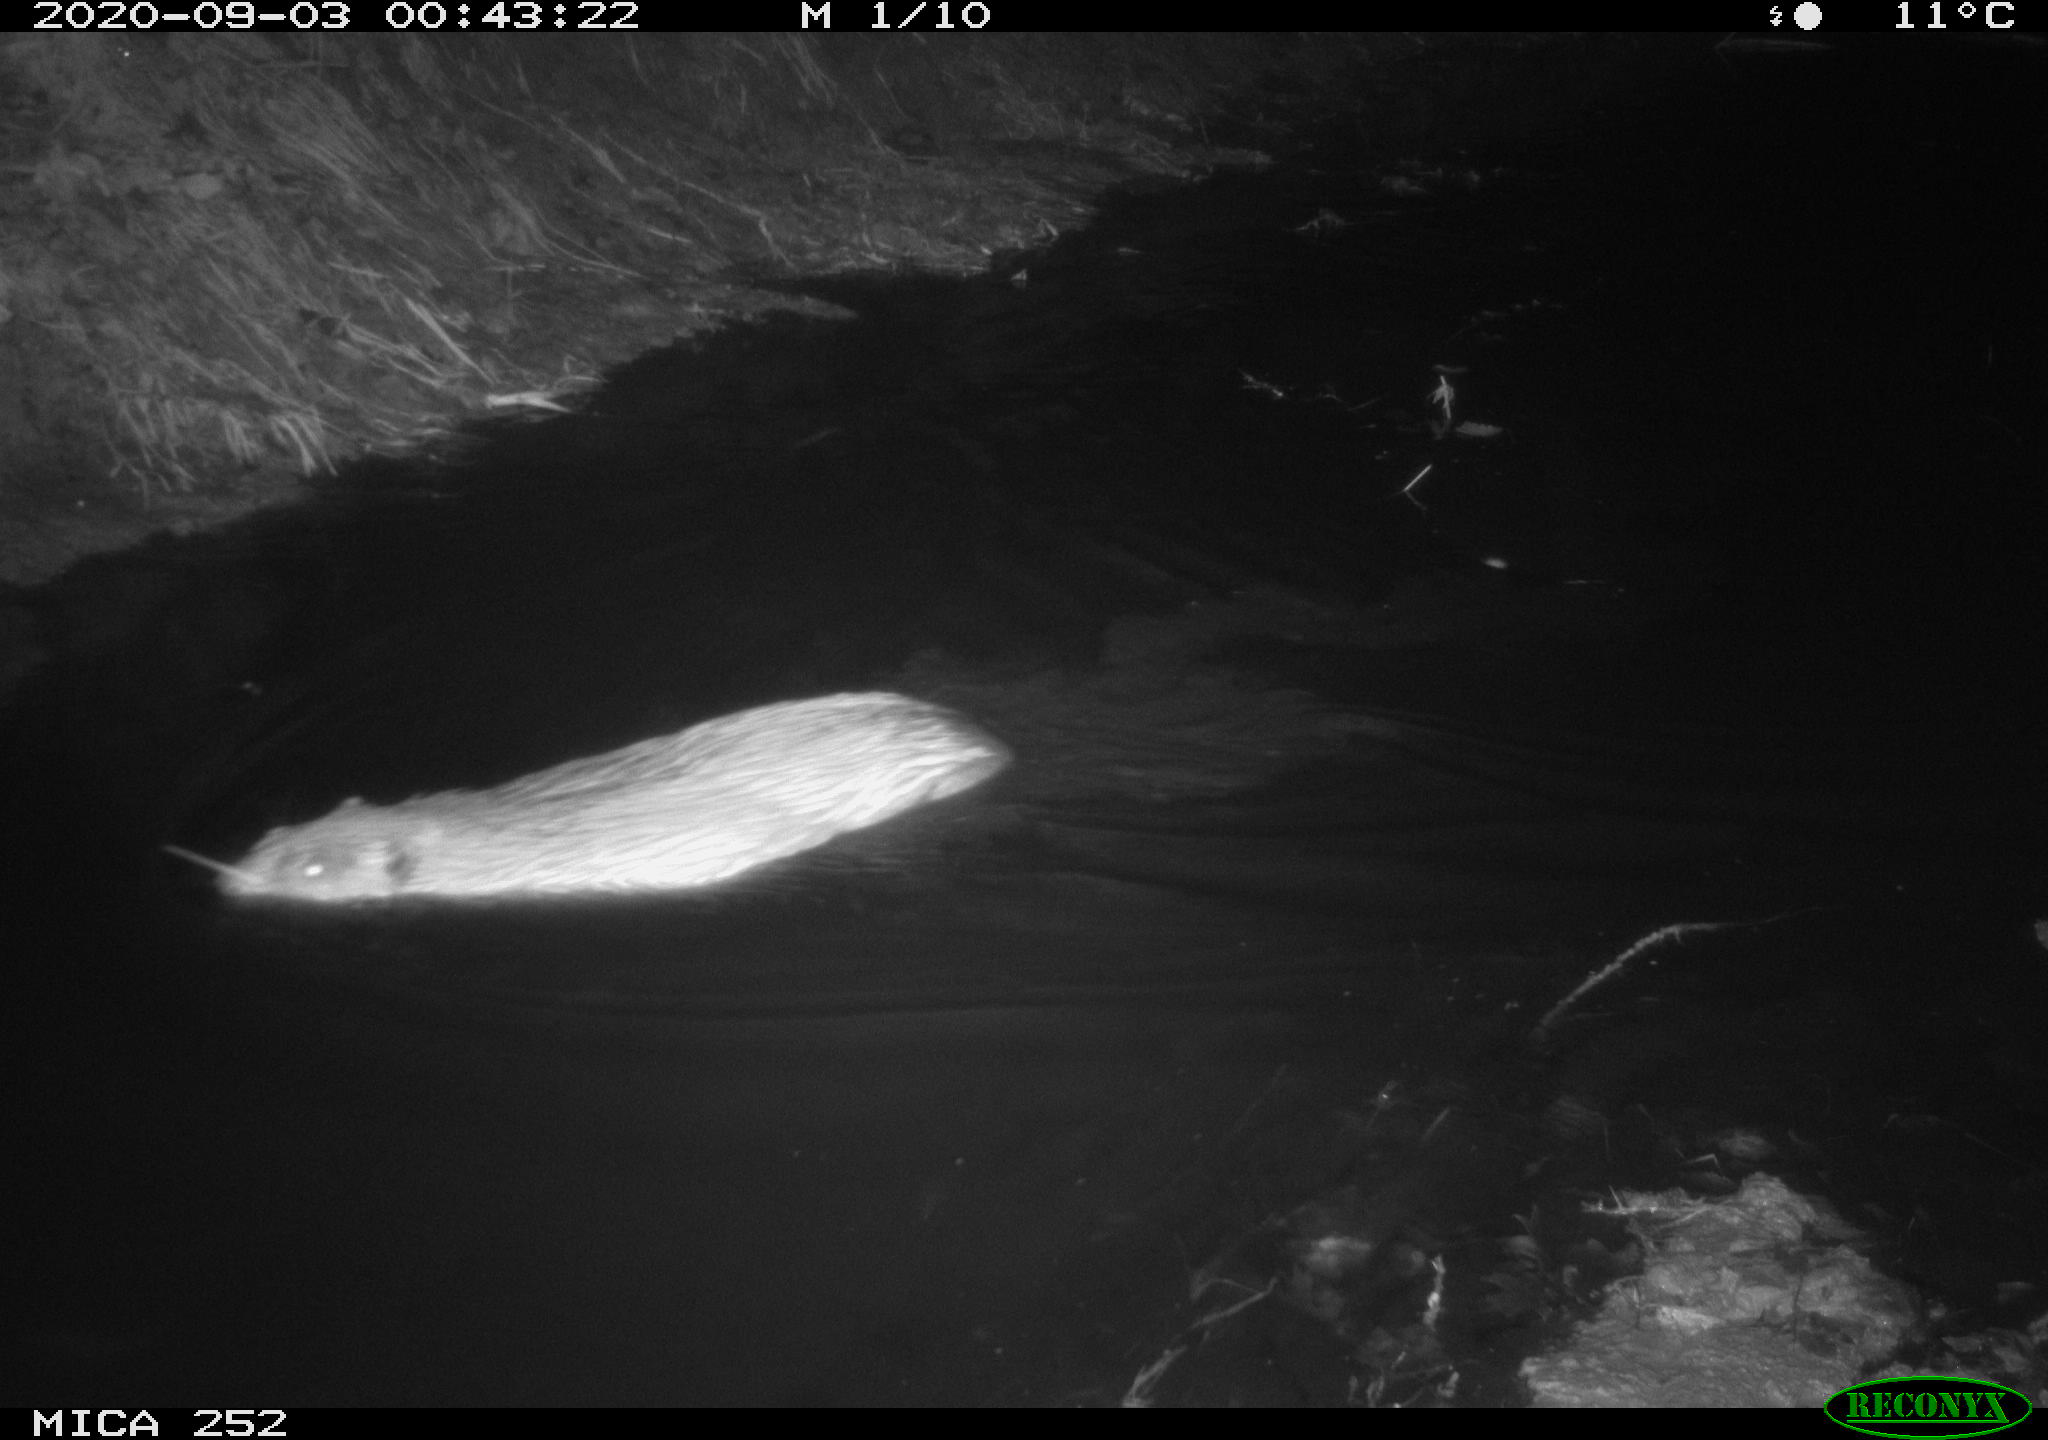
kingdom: Animalia
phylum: Chordata
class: Mammalia
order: Rodentia
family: Castoridae
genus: Castor
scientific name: Castor fiber
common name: Eurasian beaver
